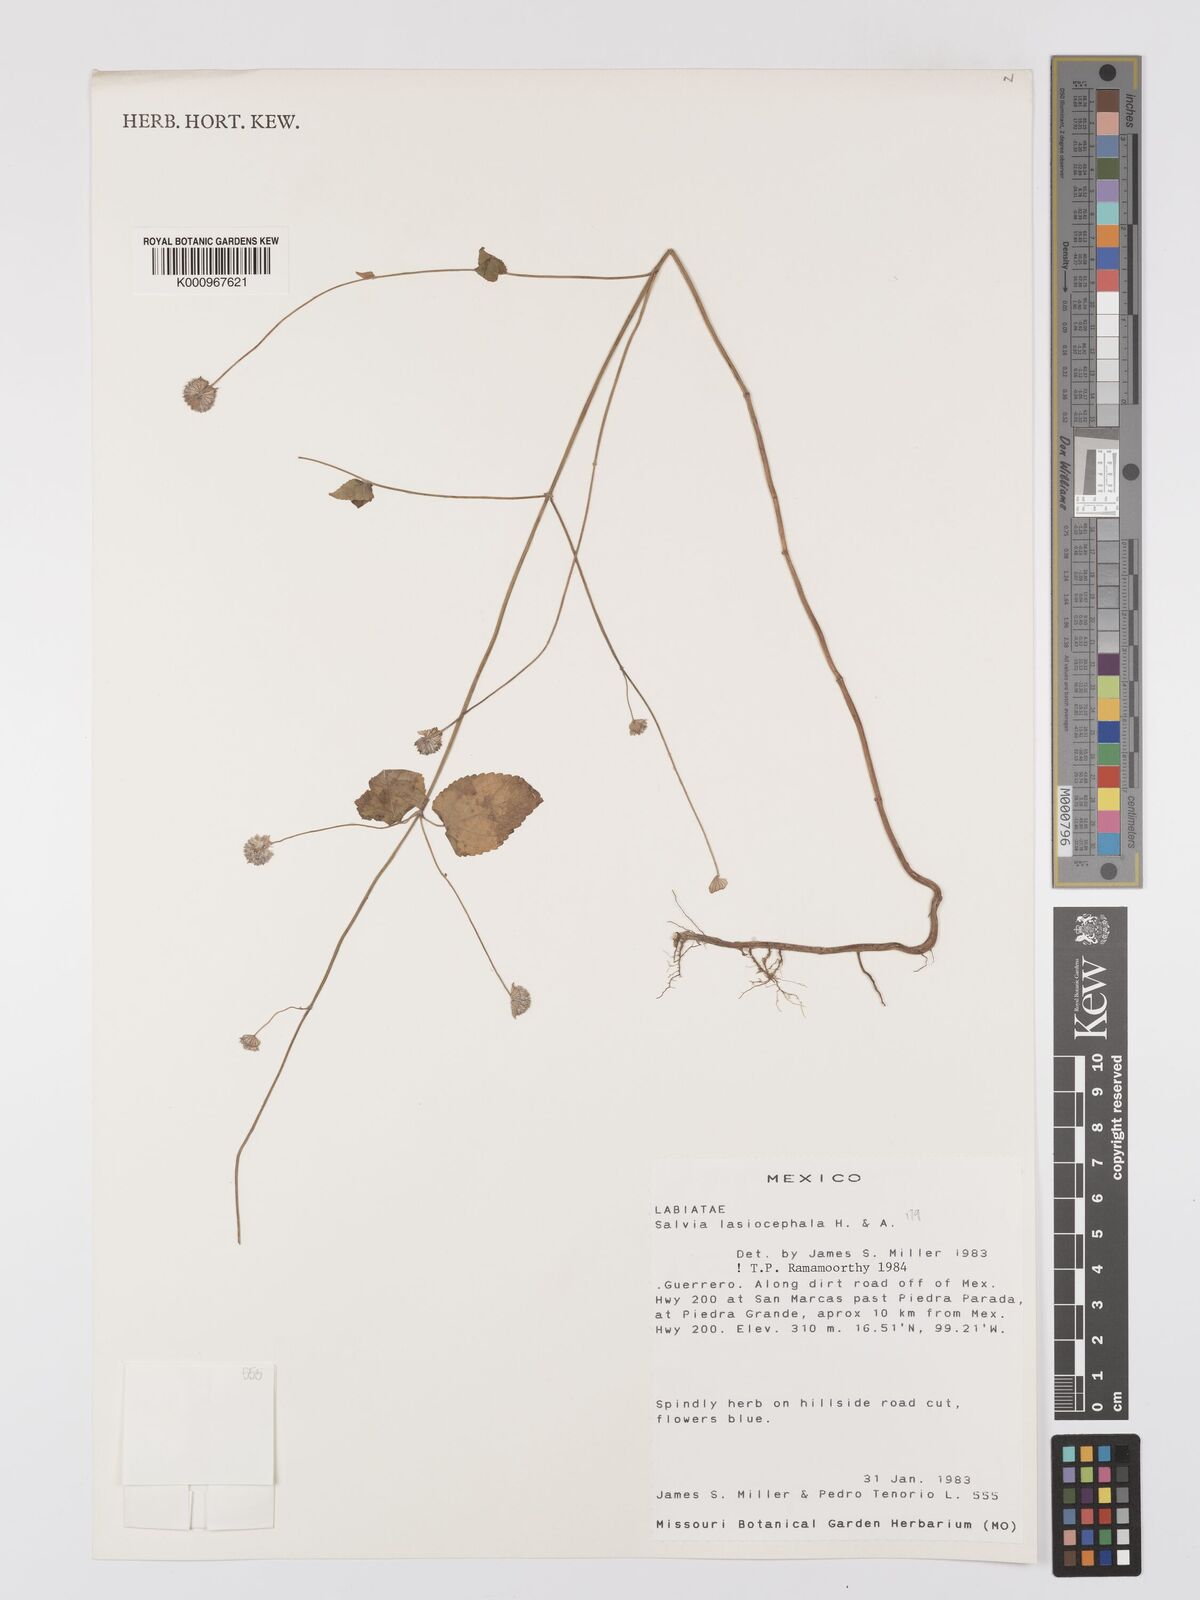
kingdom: Plantae
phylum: Tracheophyta
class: Magnoliopsida
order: Lamiales
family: Lamiaceae
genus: Salvia
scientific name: Salvia lasiocephala
